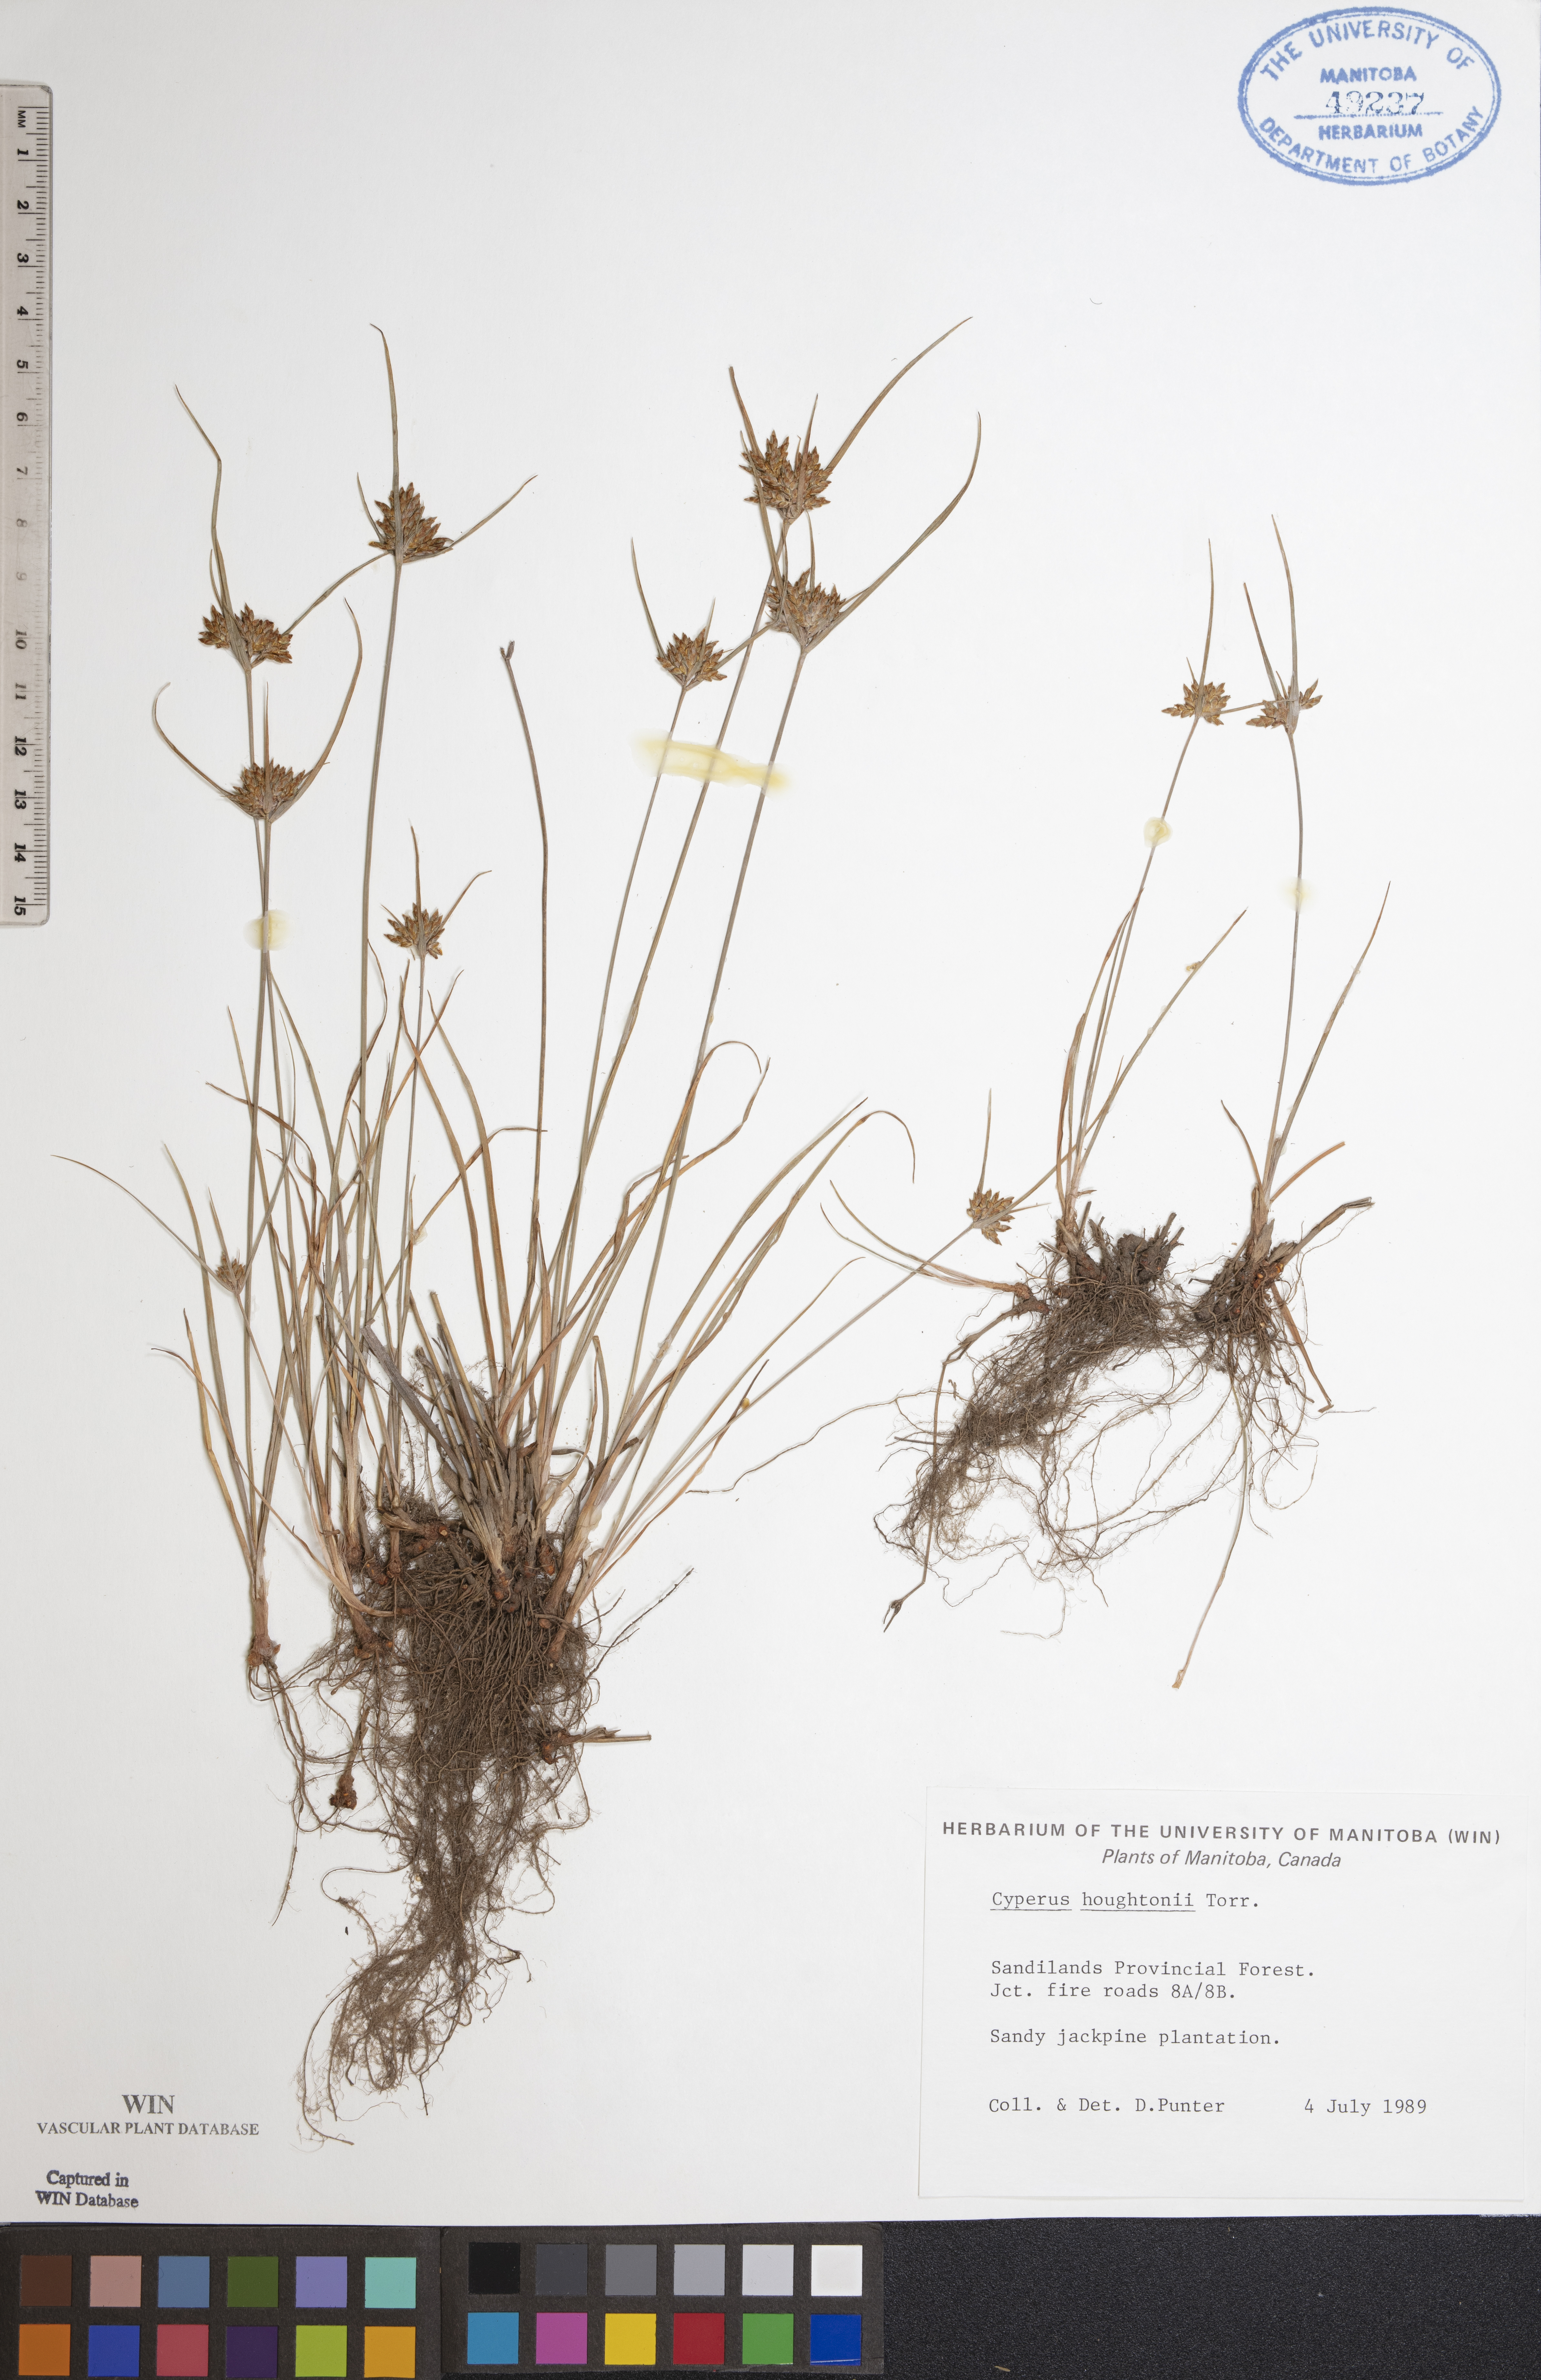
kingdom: Plantae
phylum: Tracheophyta
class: Liliopsida
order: Poales
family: Cyperaceae
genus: Cyperus
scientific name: Cyperus houghtonii
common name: Houghton's cyperus
